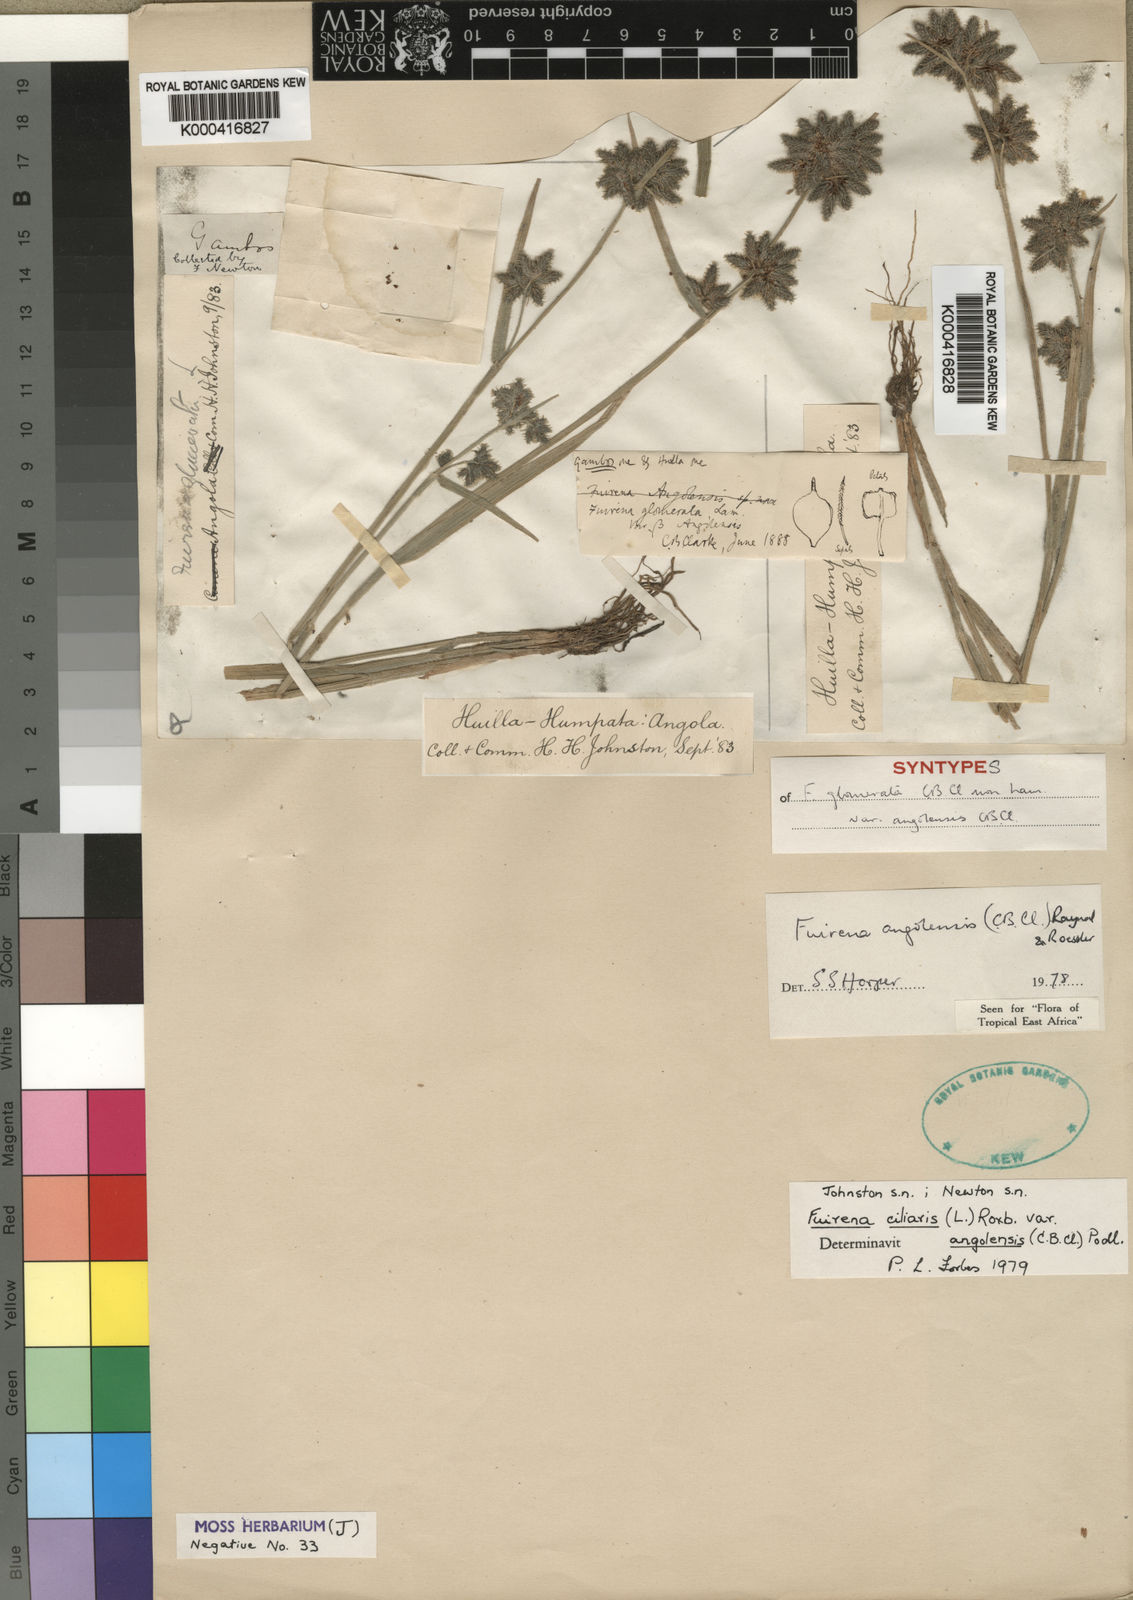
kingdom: Plantae
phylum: Tracheophyta
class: Liliopsida
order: Poales
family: Cyperaceae
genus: Fuirena
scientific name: Fuirena ciliaris
